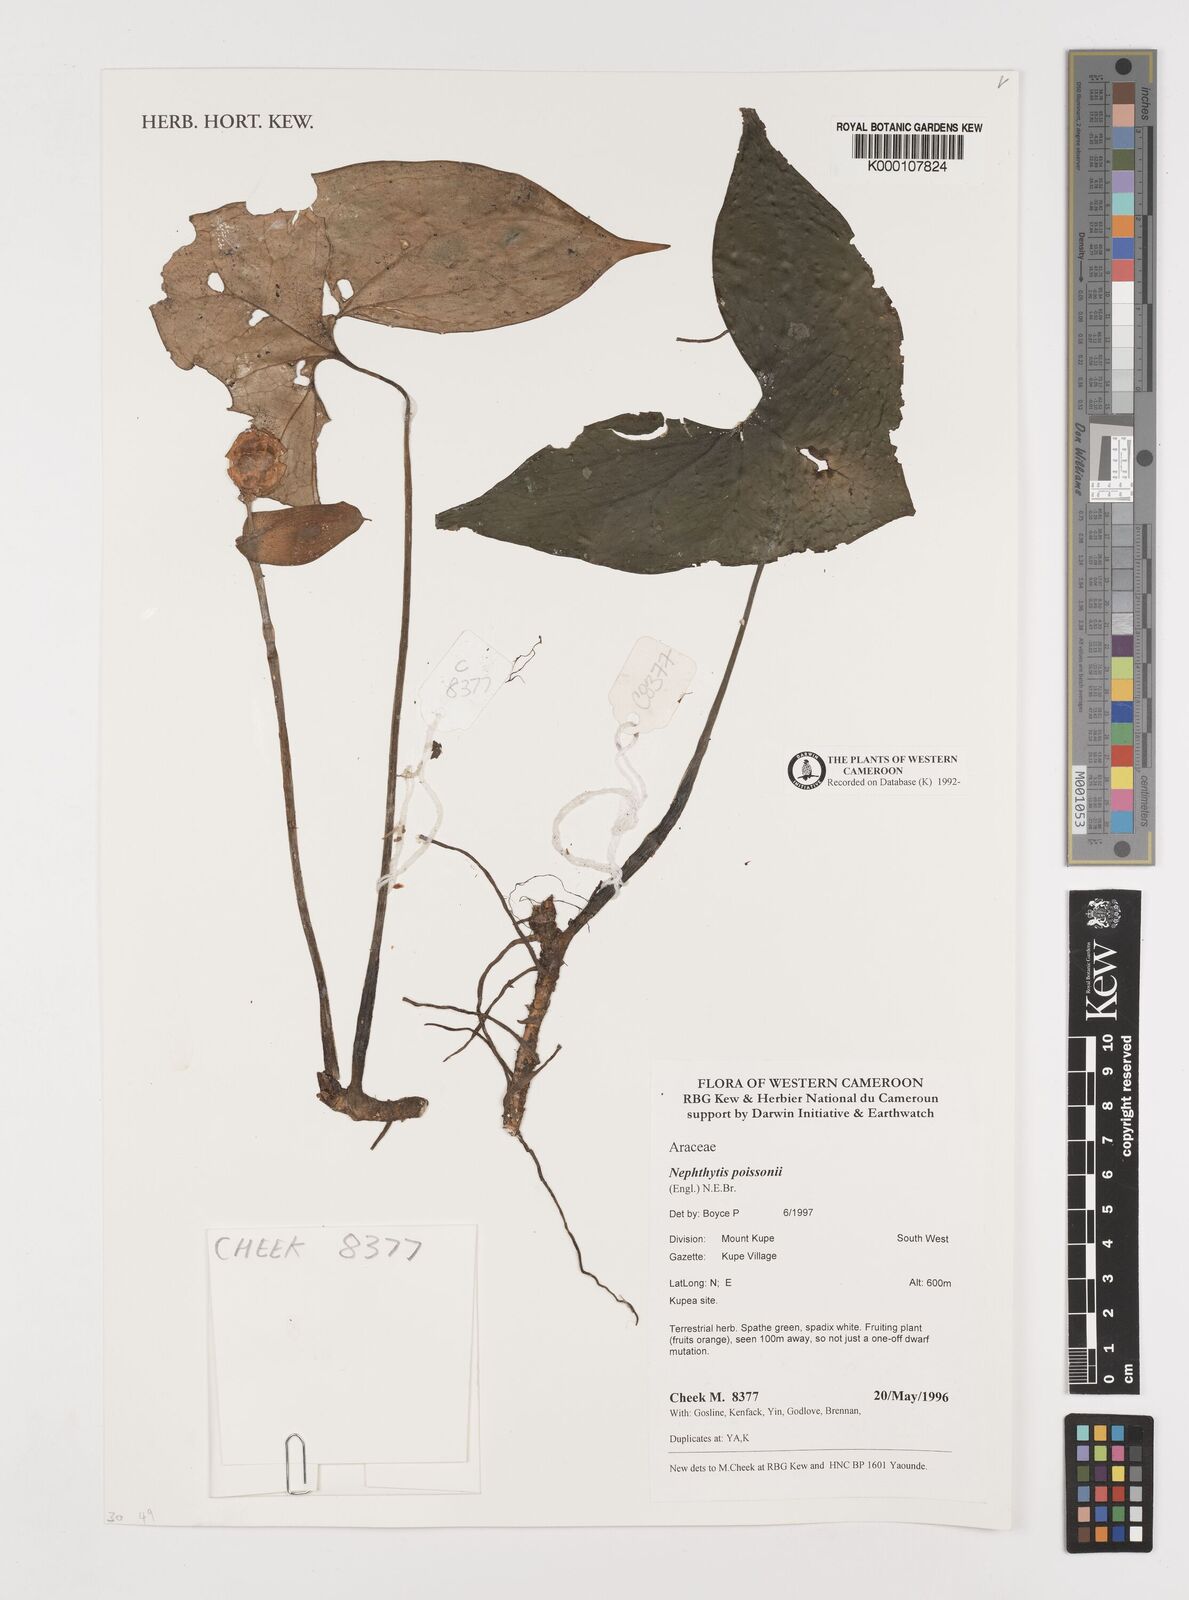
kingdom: Plantae
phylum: Tracheophyta
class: Liliopsida
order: Alismatales
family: Araceae
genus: Nephthytis
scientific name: Nephthytis poissonii
